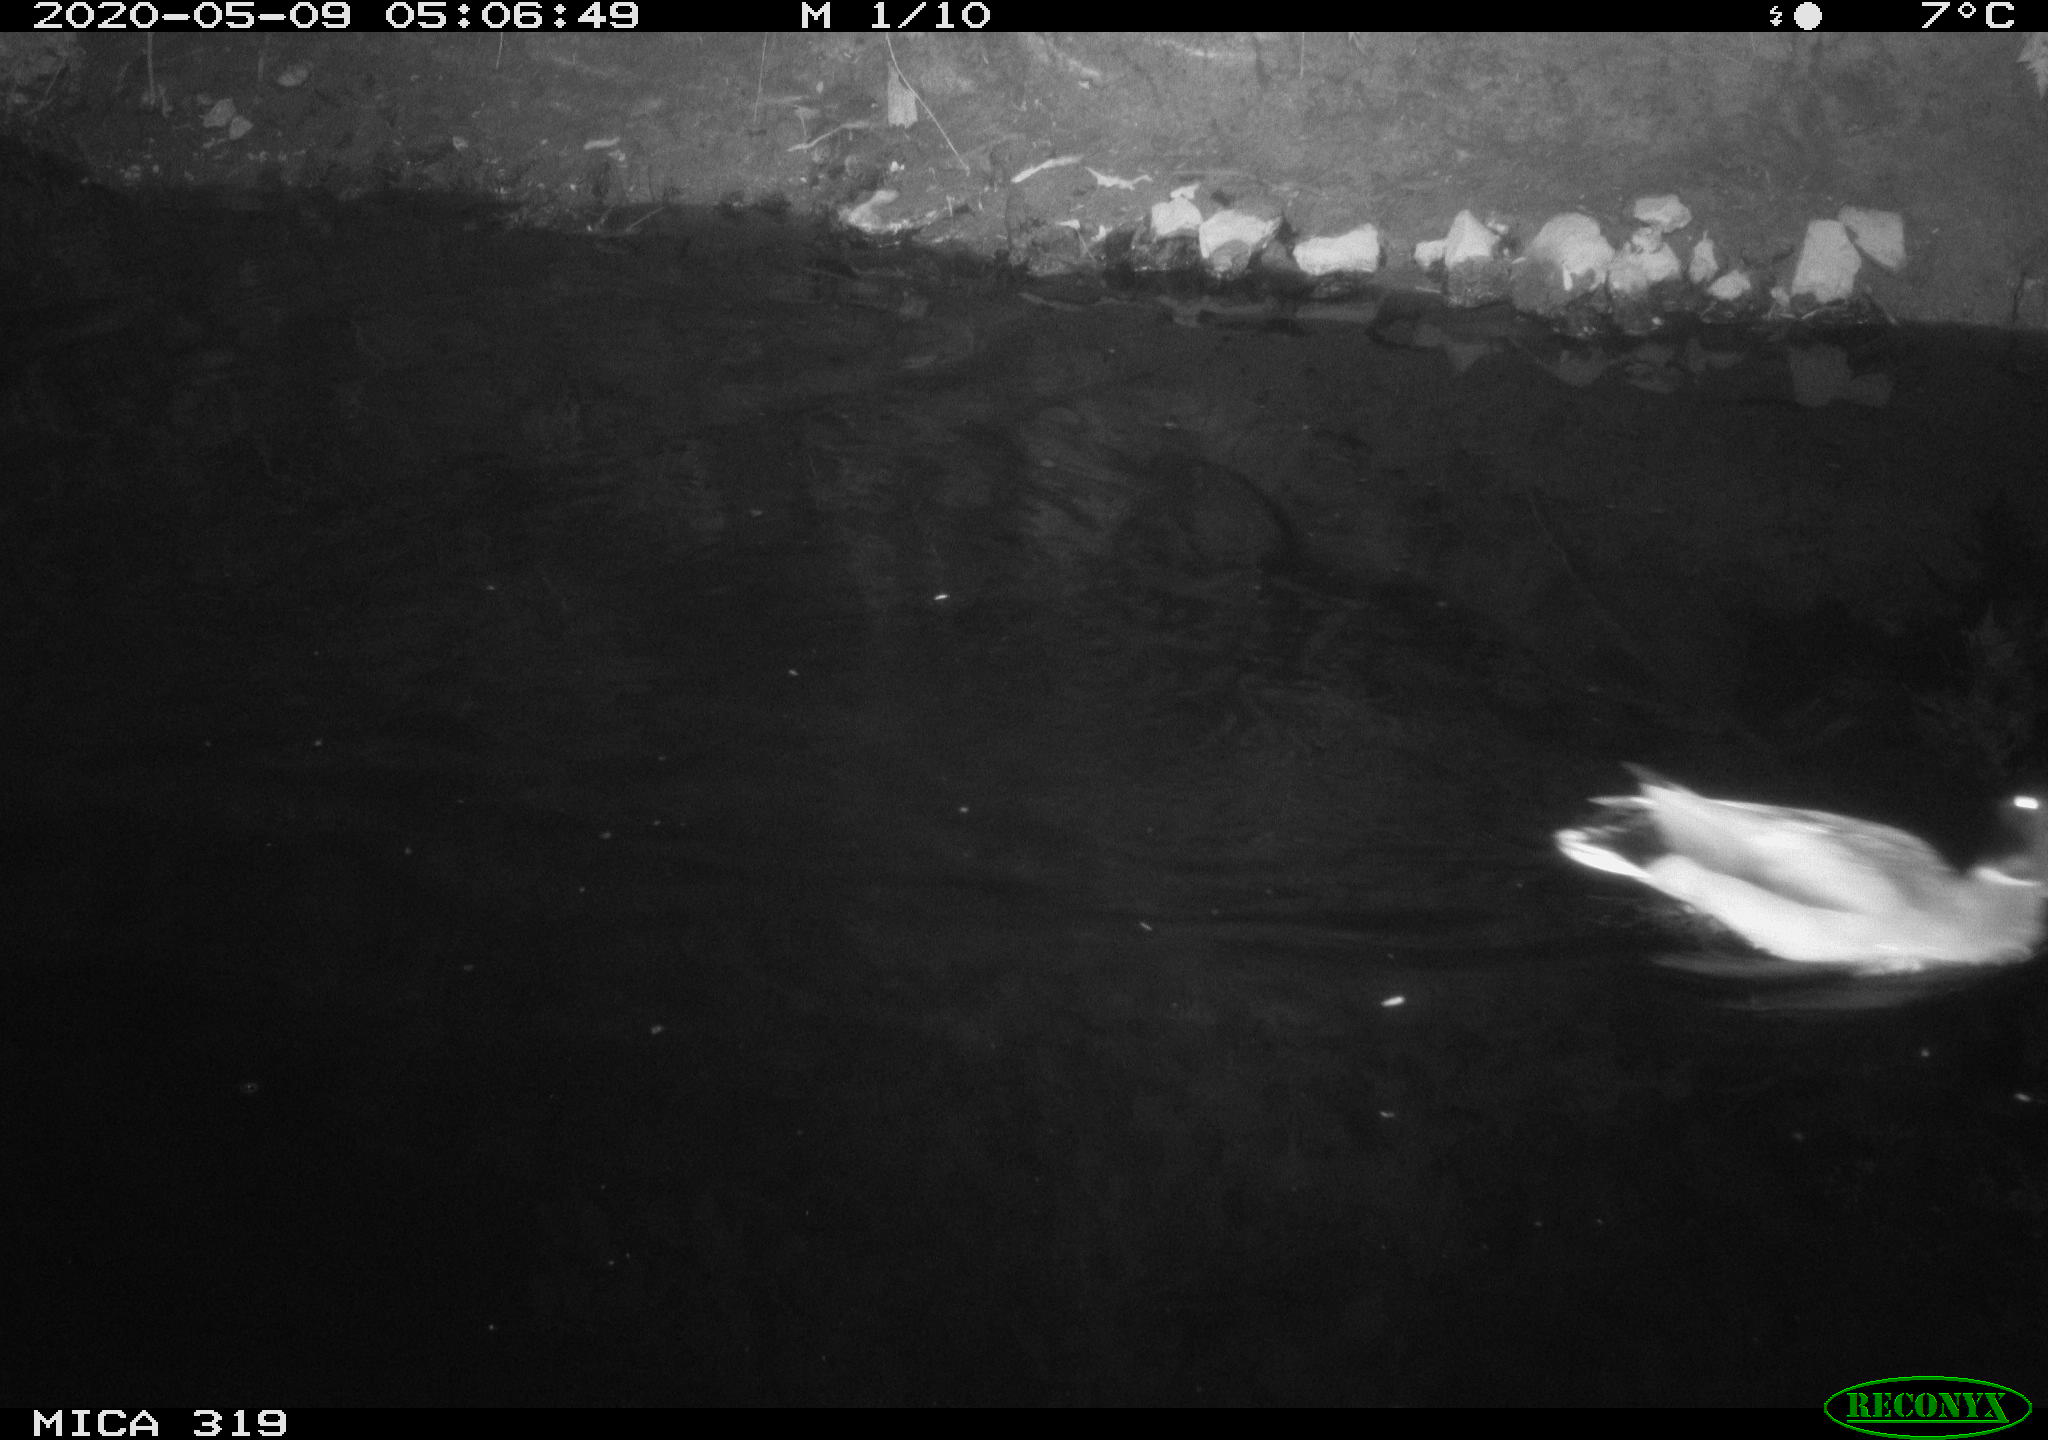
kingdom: Animalia
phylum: Chordata
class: Aves
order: Anseriformes
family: Anatidae
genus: Anas
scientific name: Anas platyrhynchos
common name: Mallard
